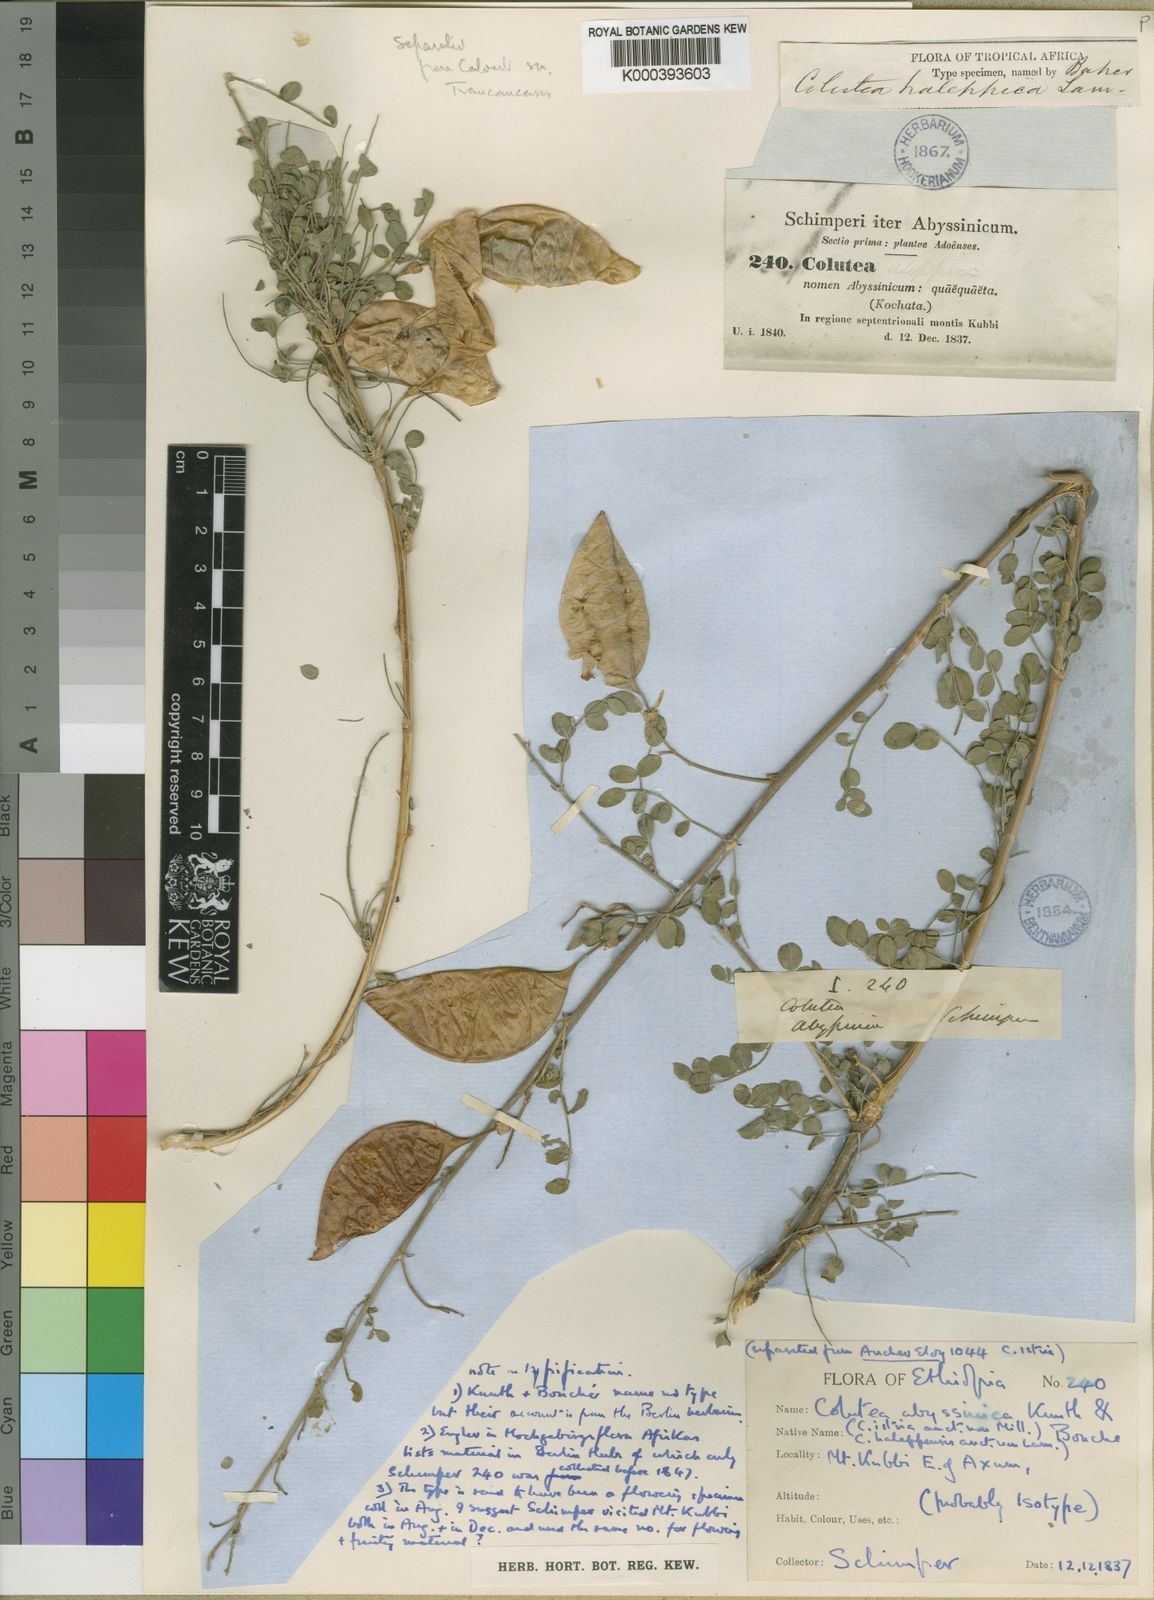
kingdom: Plantae
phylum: Tracheophyta
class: Magnoliopsida
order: Fabales
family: Fabaceae
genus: Colutea
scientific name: Colutea abyssinica
